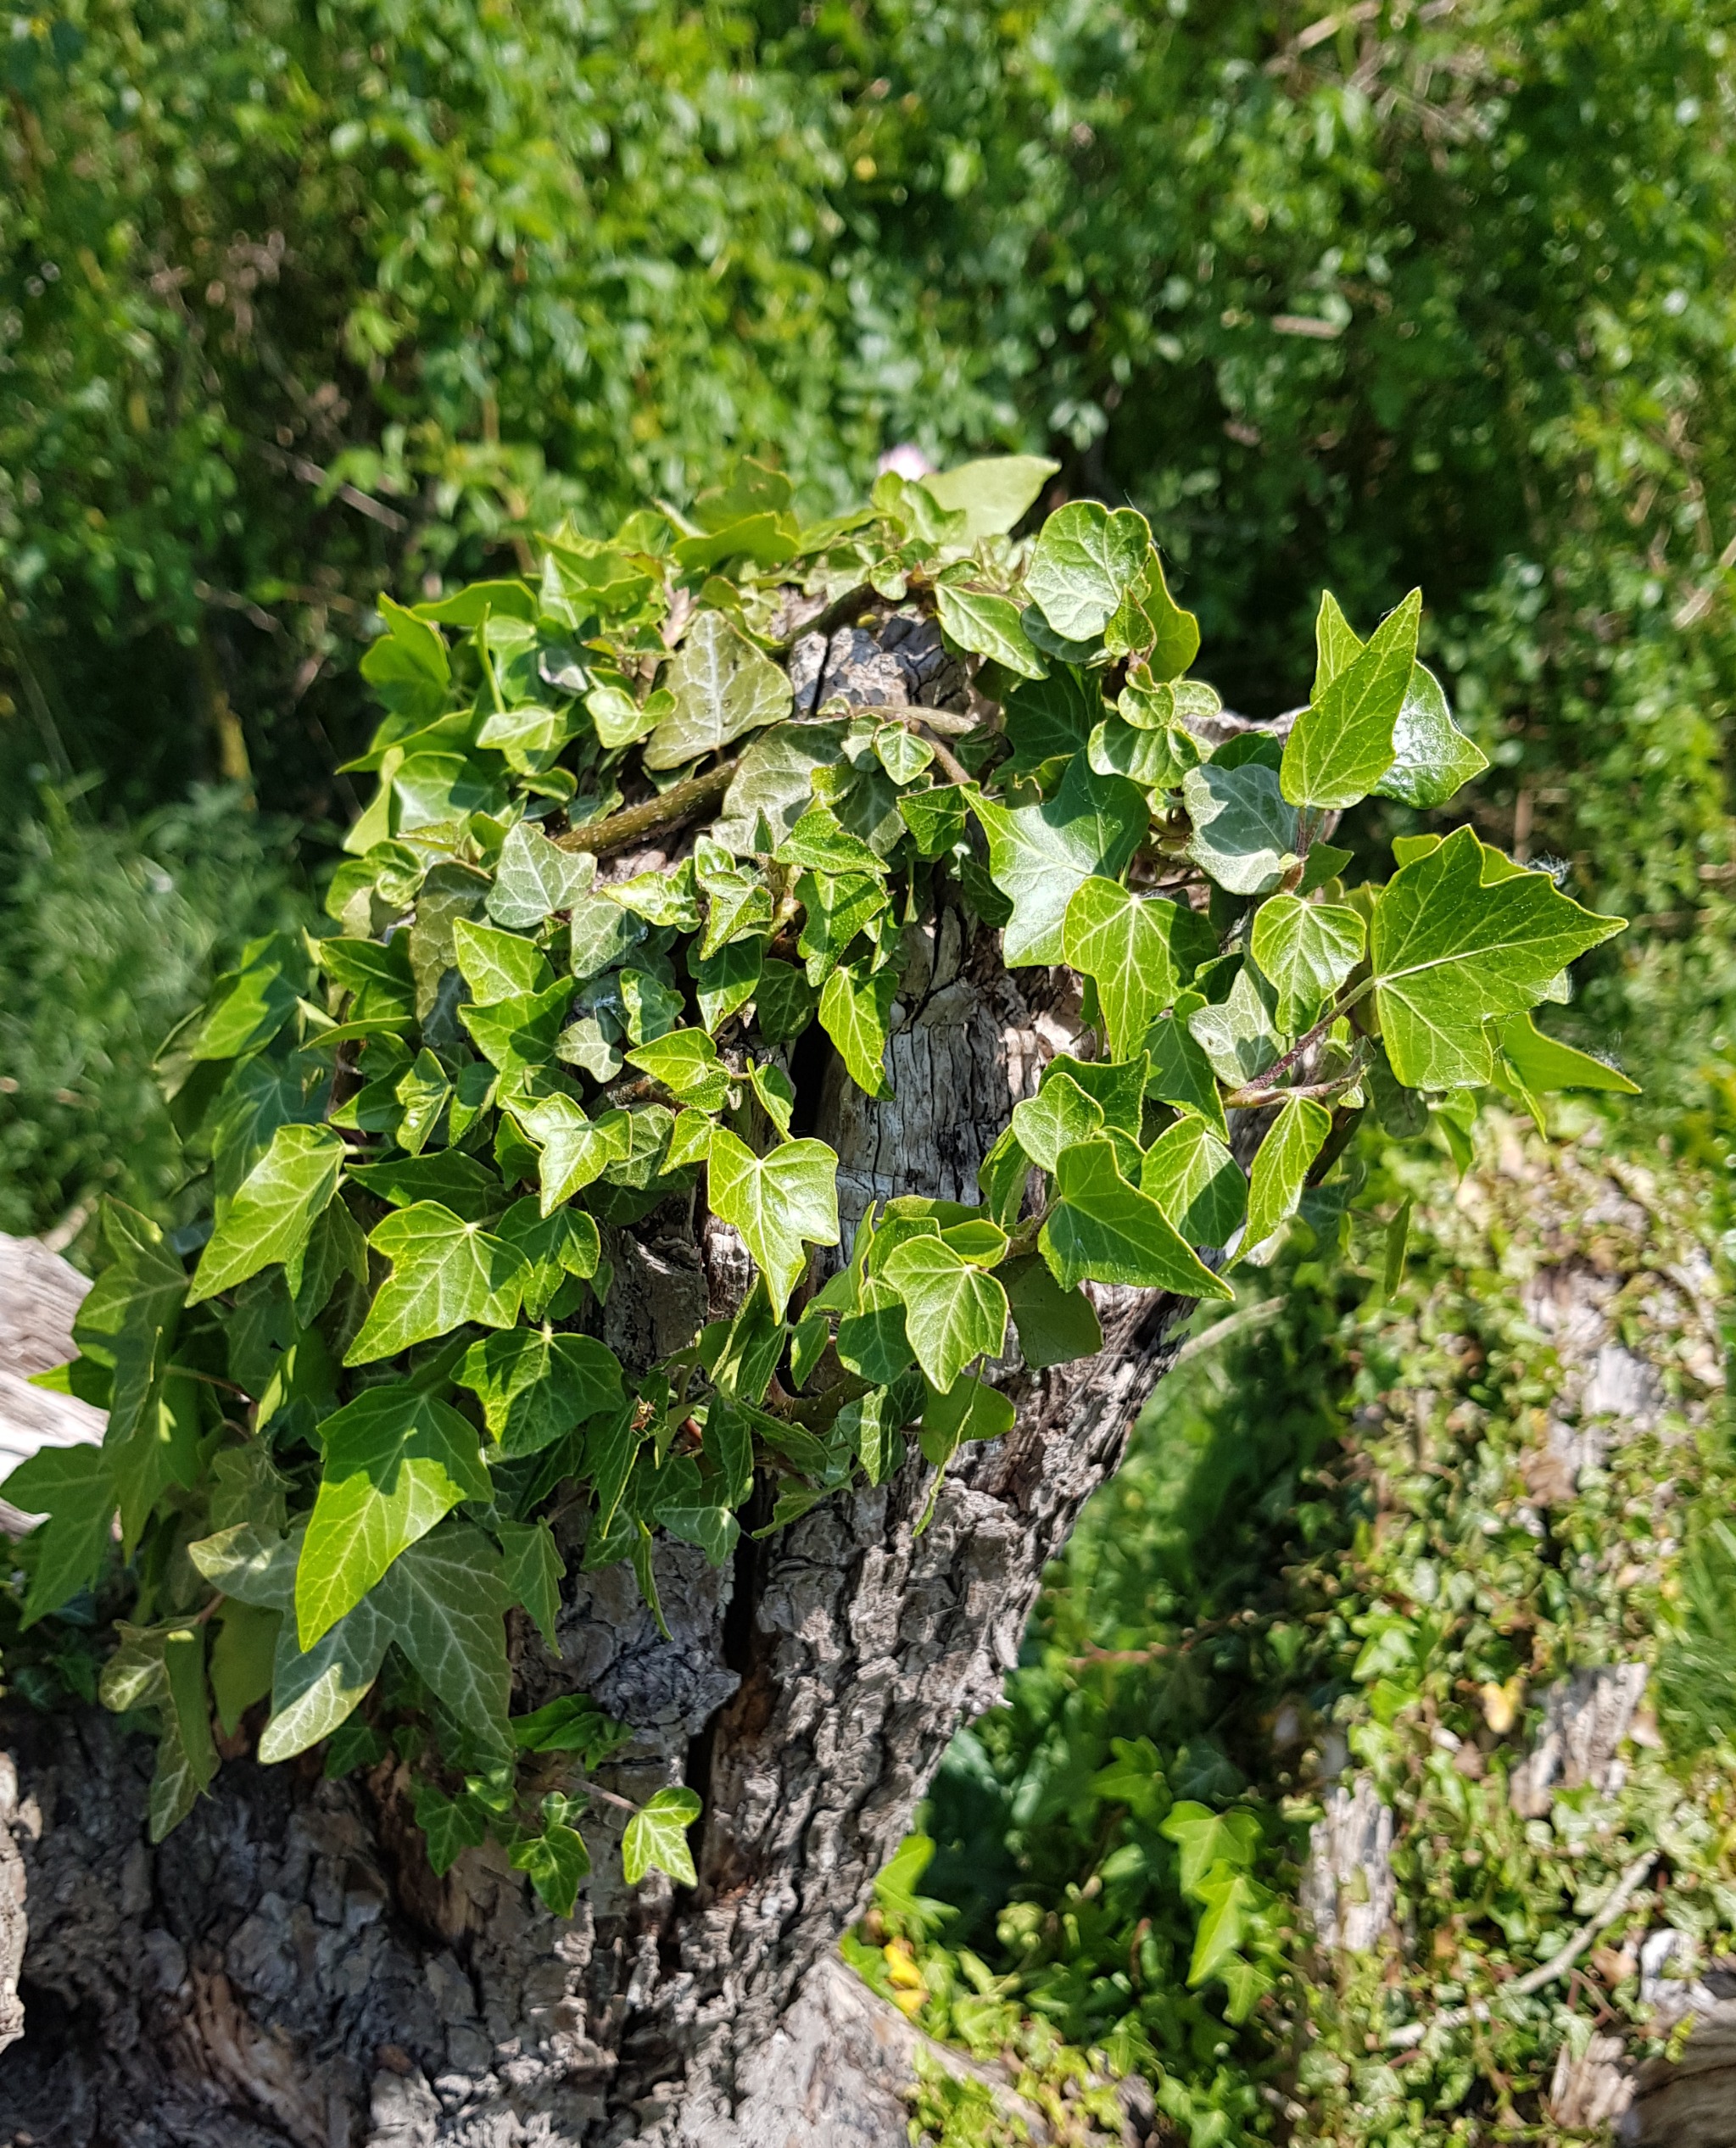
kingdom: Plantae
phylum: Tracheophyta
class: Magnoliopsida
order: Apiales
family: Araliaceae
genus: Hedera
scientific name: Hedera helix
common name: Vedbend
